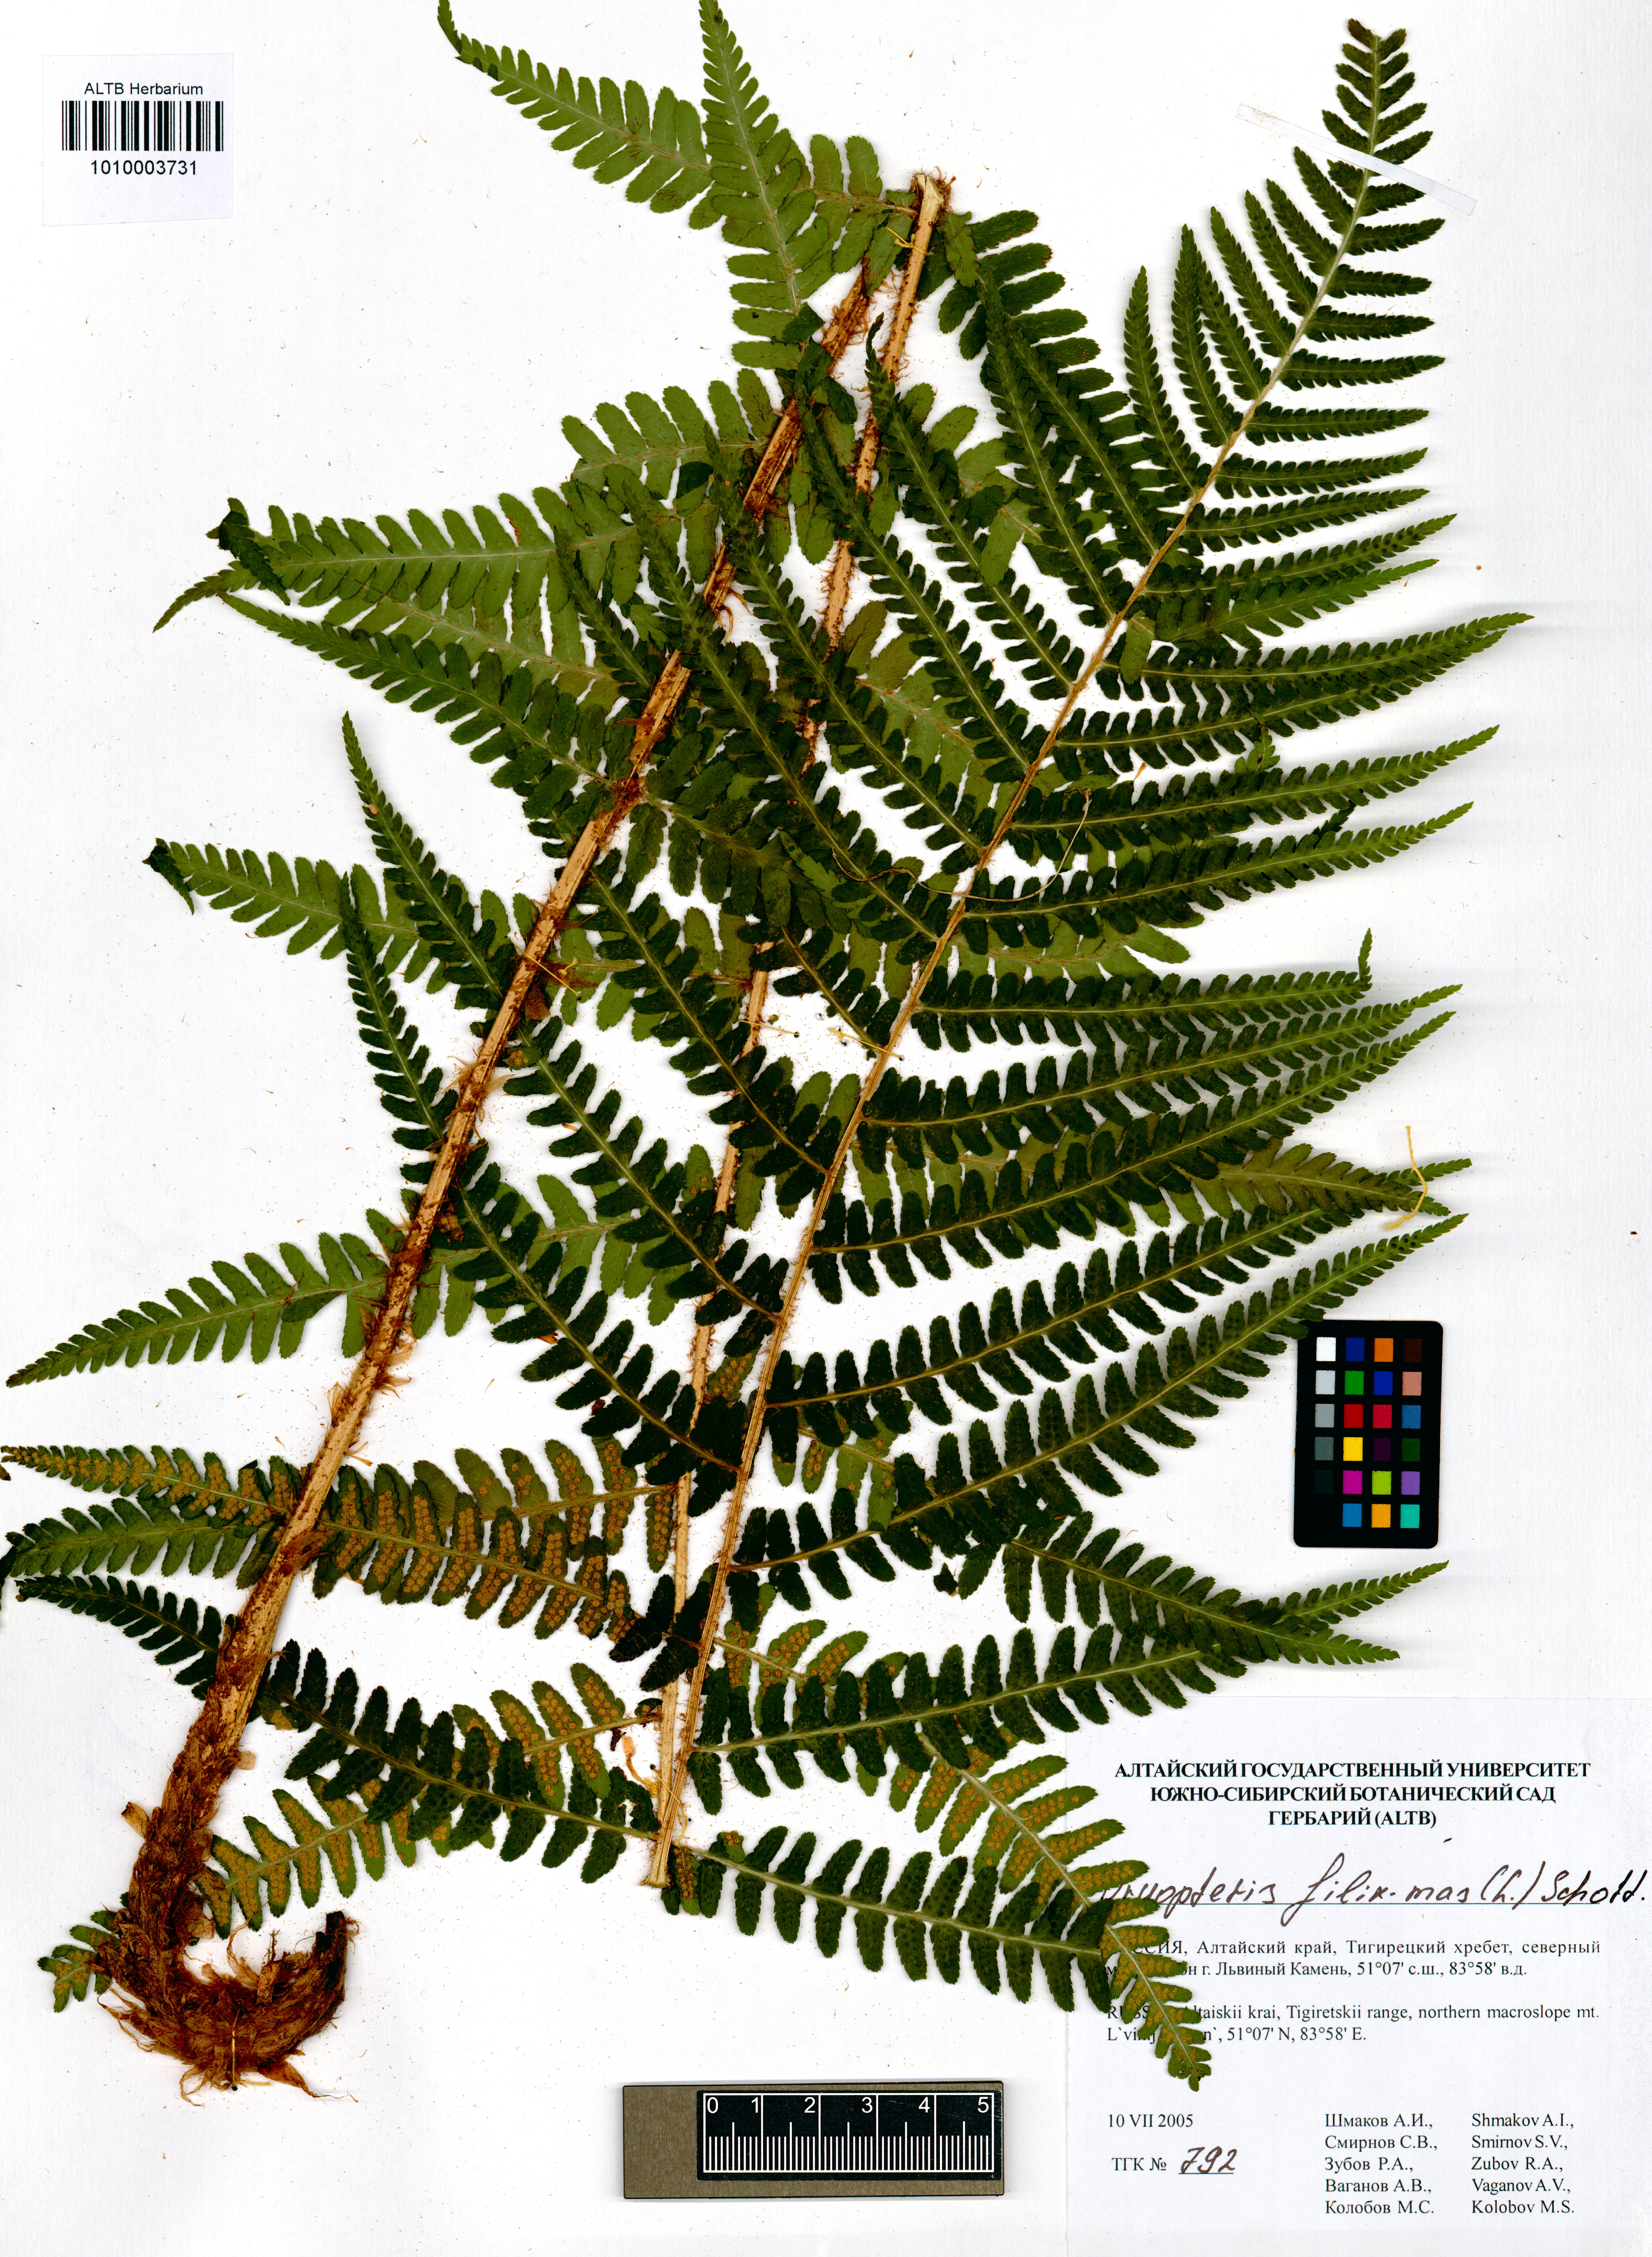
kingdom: Plantae
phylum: Tracheophyta
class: Polypodiopsida
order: Polypodiales
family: Dryopteridaceae
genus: Dryopteris
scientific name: Dryopteris filix-mas
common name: Male fern
